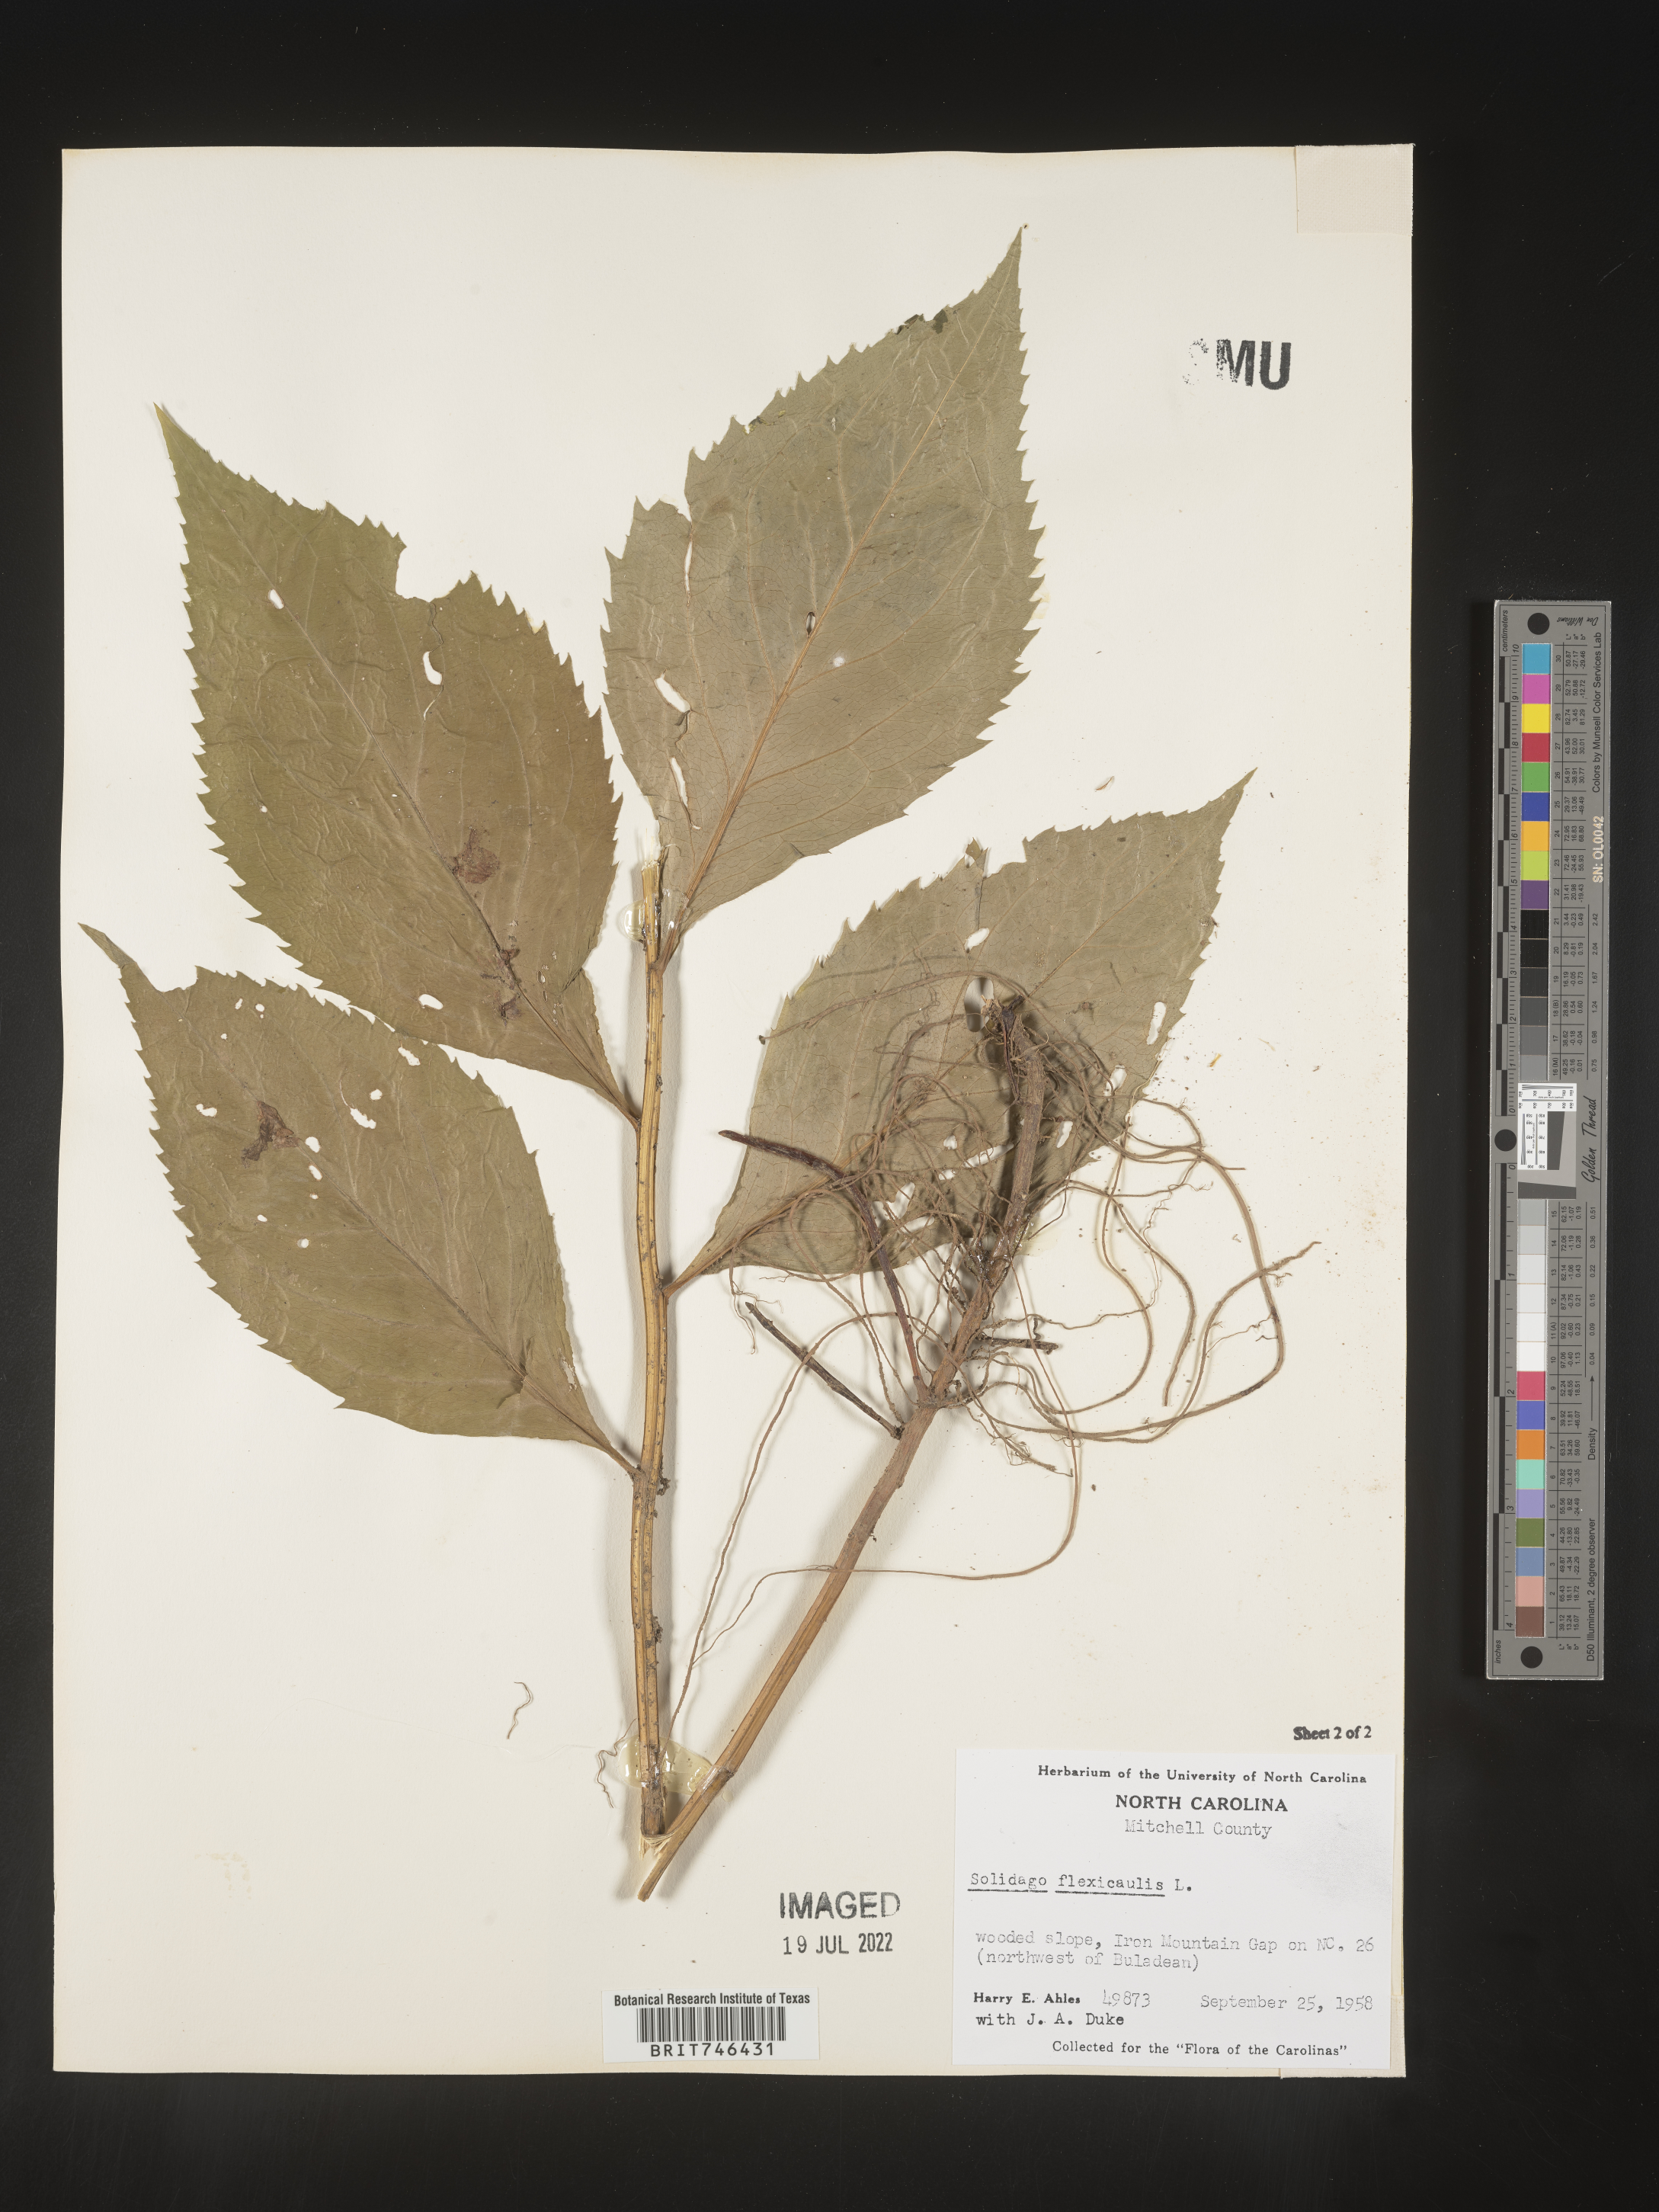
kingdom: Plantae
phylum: Tracheophyta
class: Magnoliopsida
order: Asterales
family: Asteraceae
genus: Solidago
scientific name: Solidago flaccidifolia
